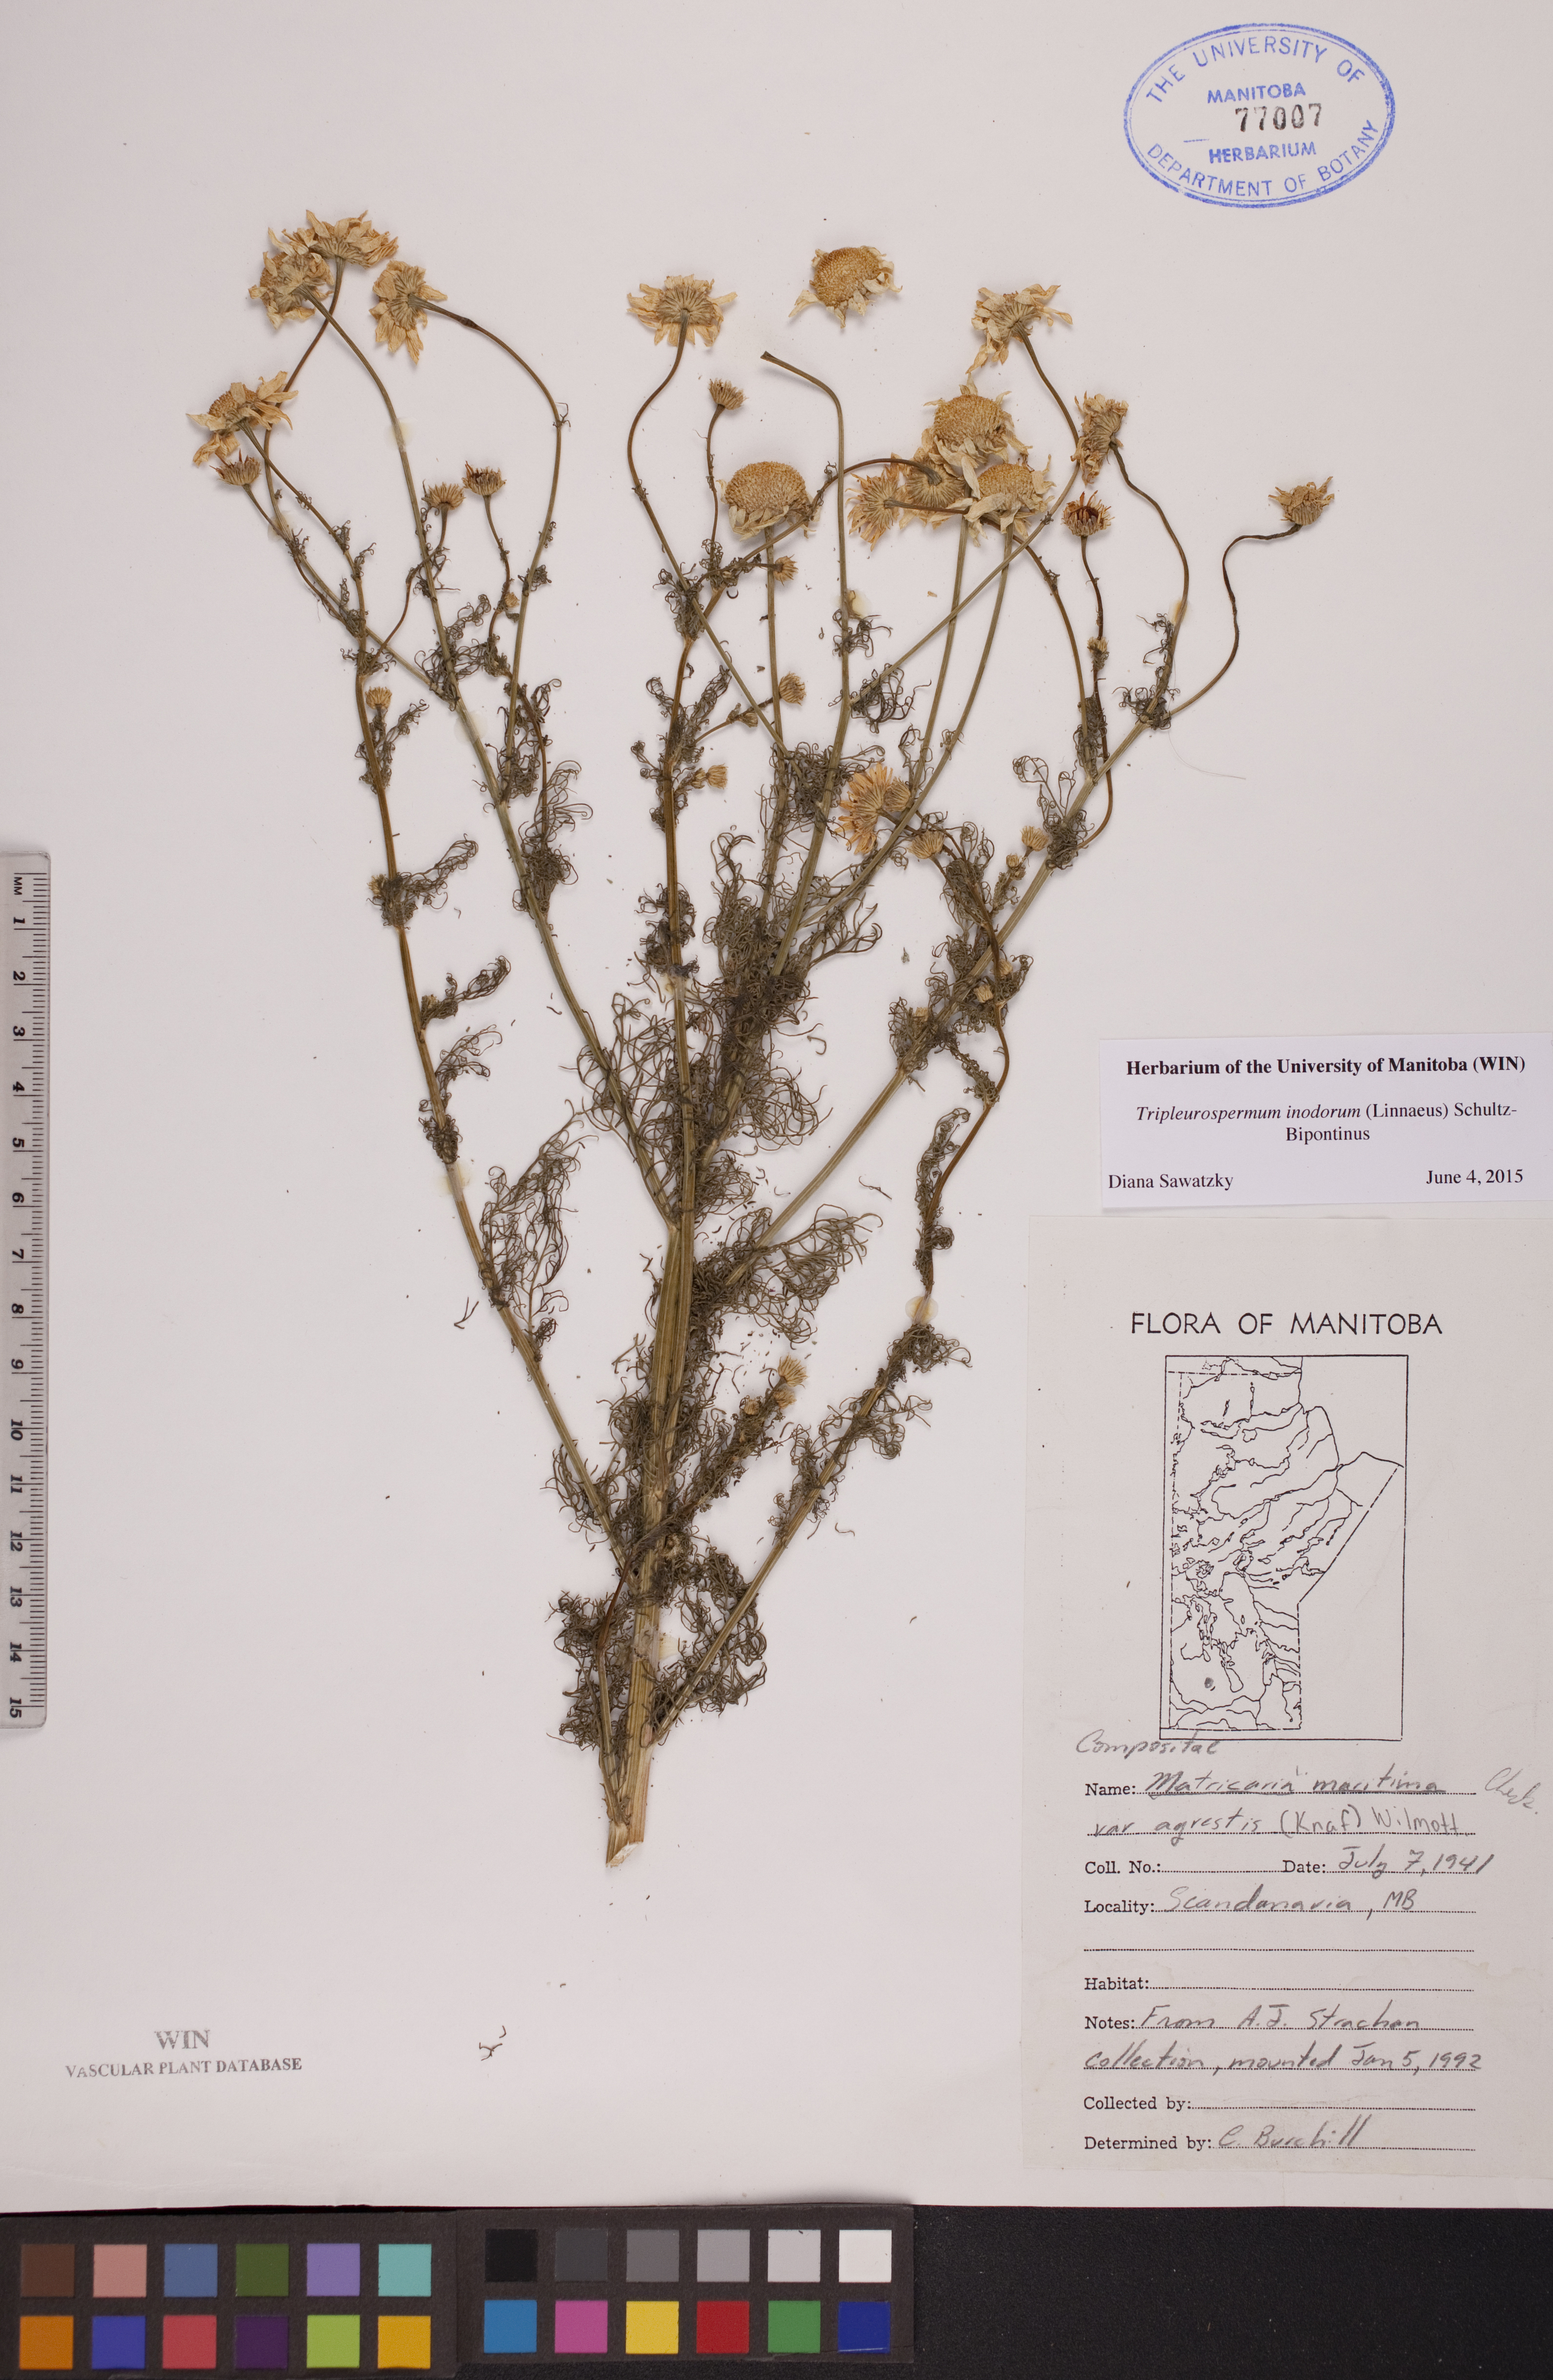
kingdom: Plantae
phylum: Tracheophyta
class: Magnoliopsida
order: Asterales
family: Asteraceae
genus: Tripleurospermum
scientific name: Tripleurospermum inodorum
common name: Scentless mayweed
